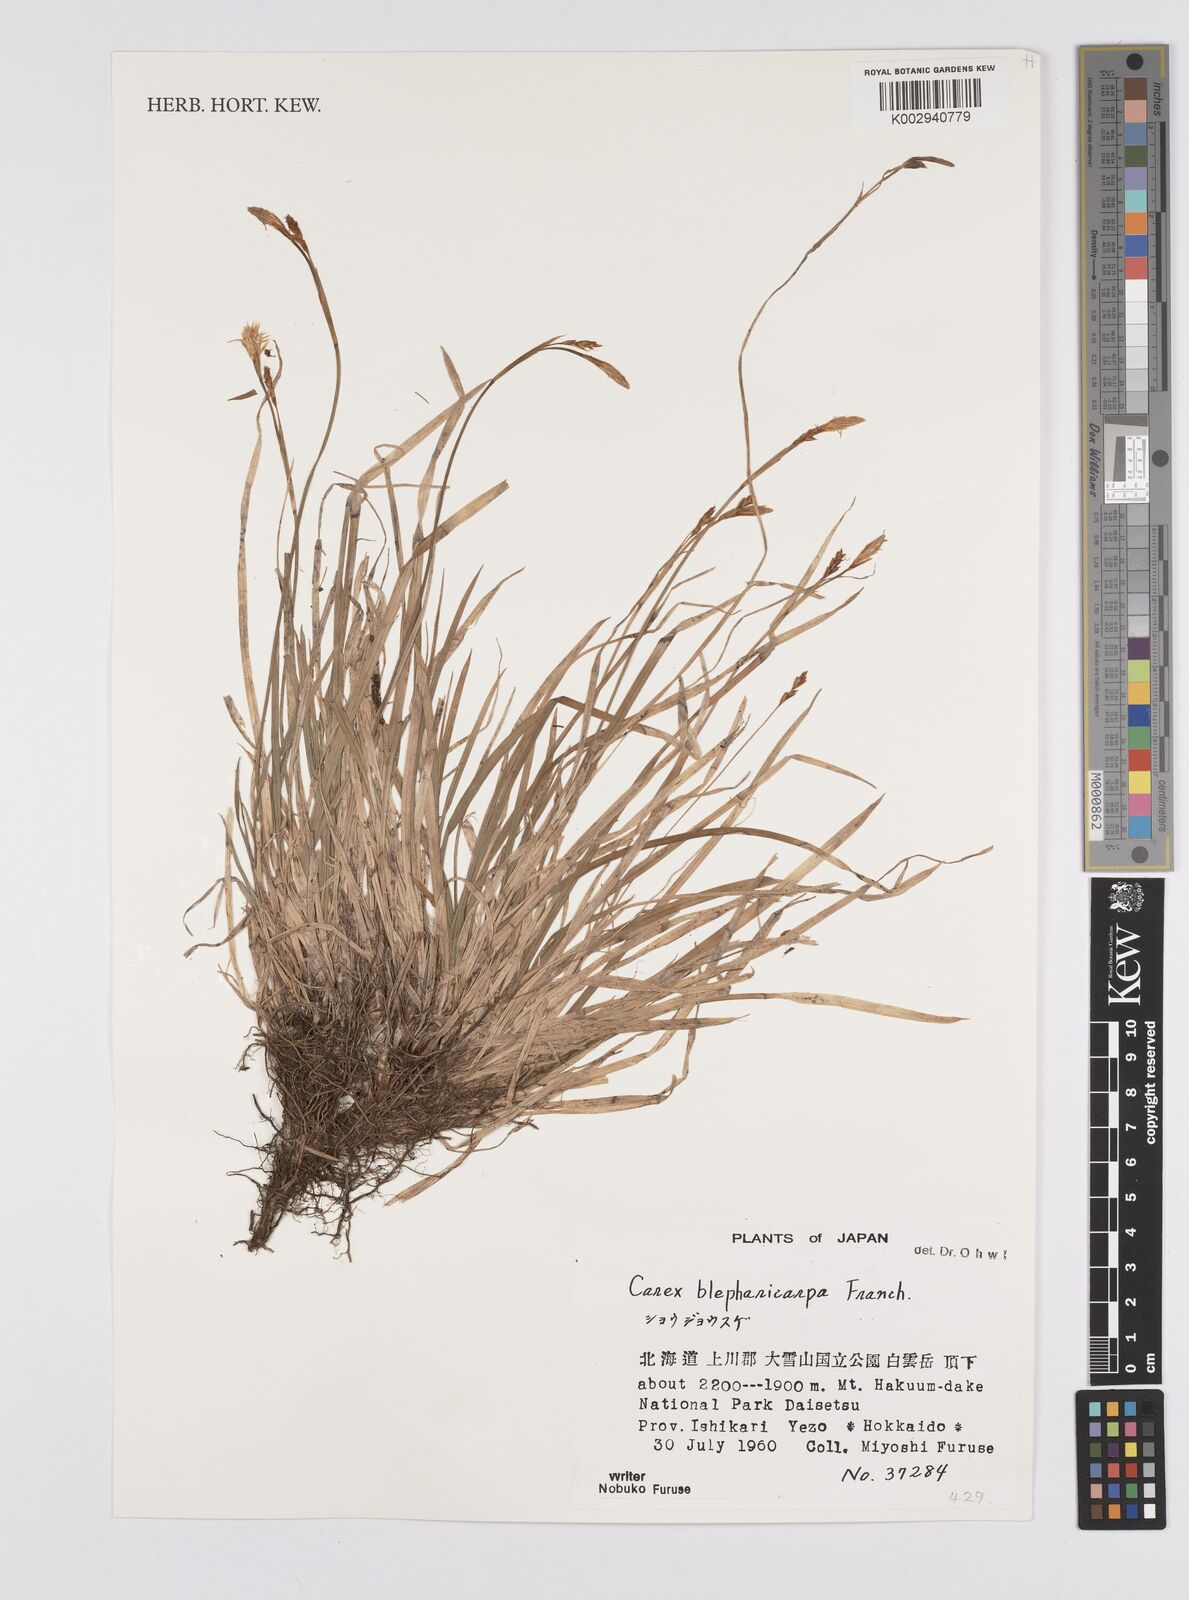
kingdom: Plantae
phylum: Tracheophyta
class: Liliopsida
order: Poales
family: Cyperaceae
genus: Carex
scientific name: Carex blepharicarpa
